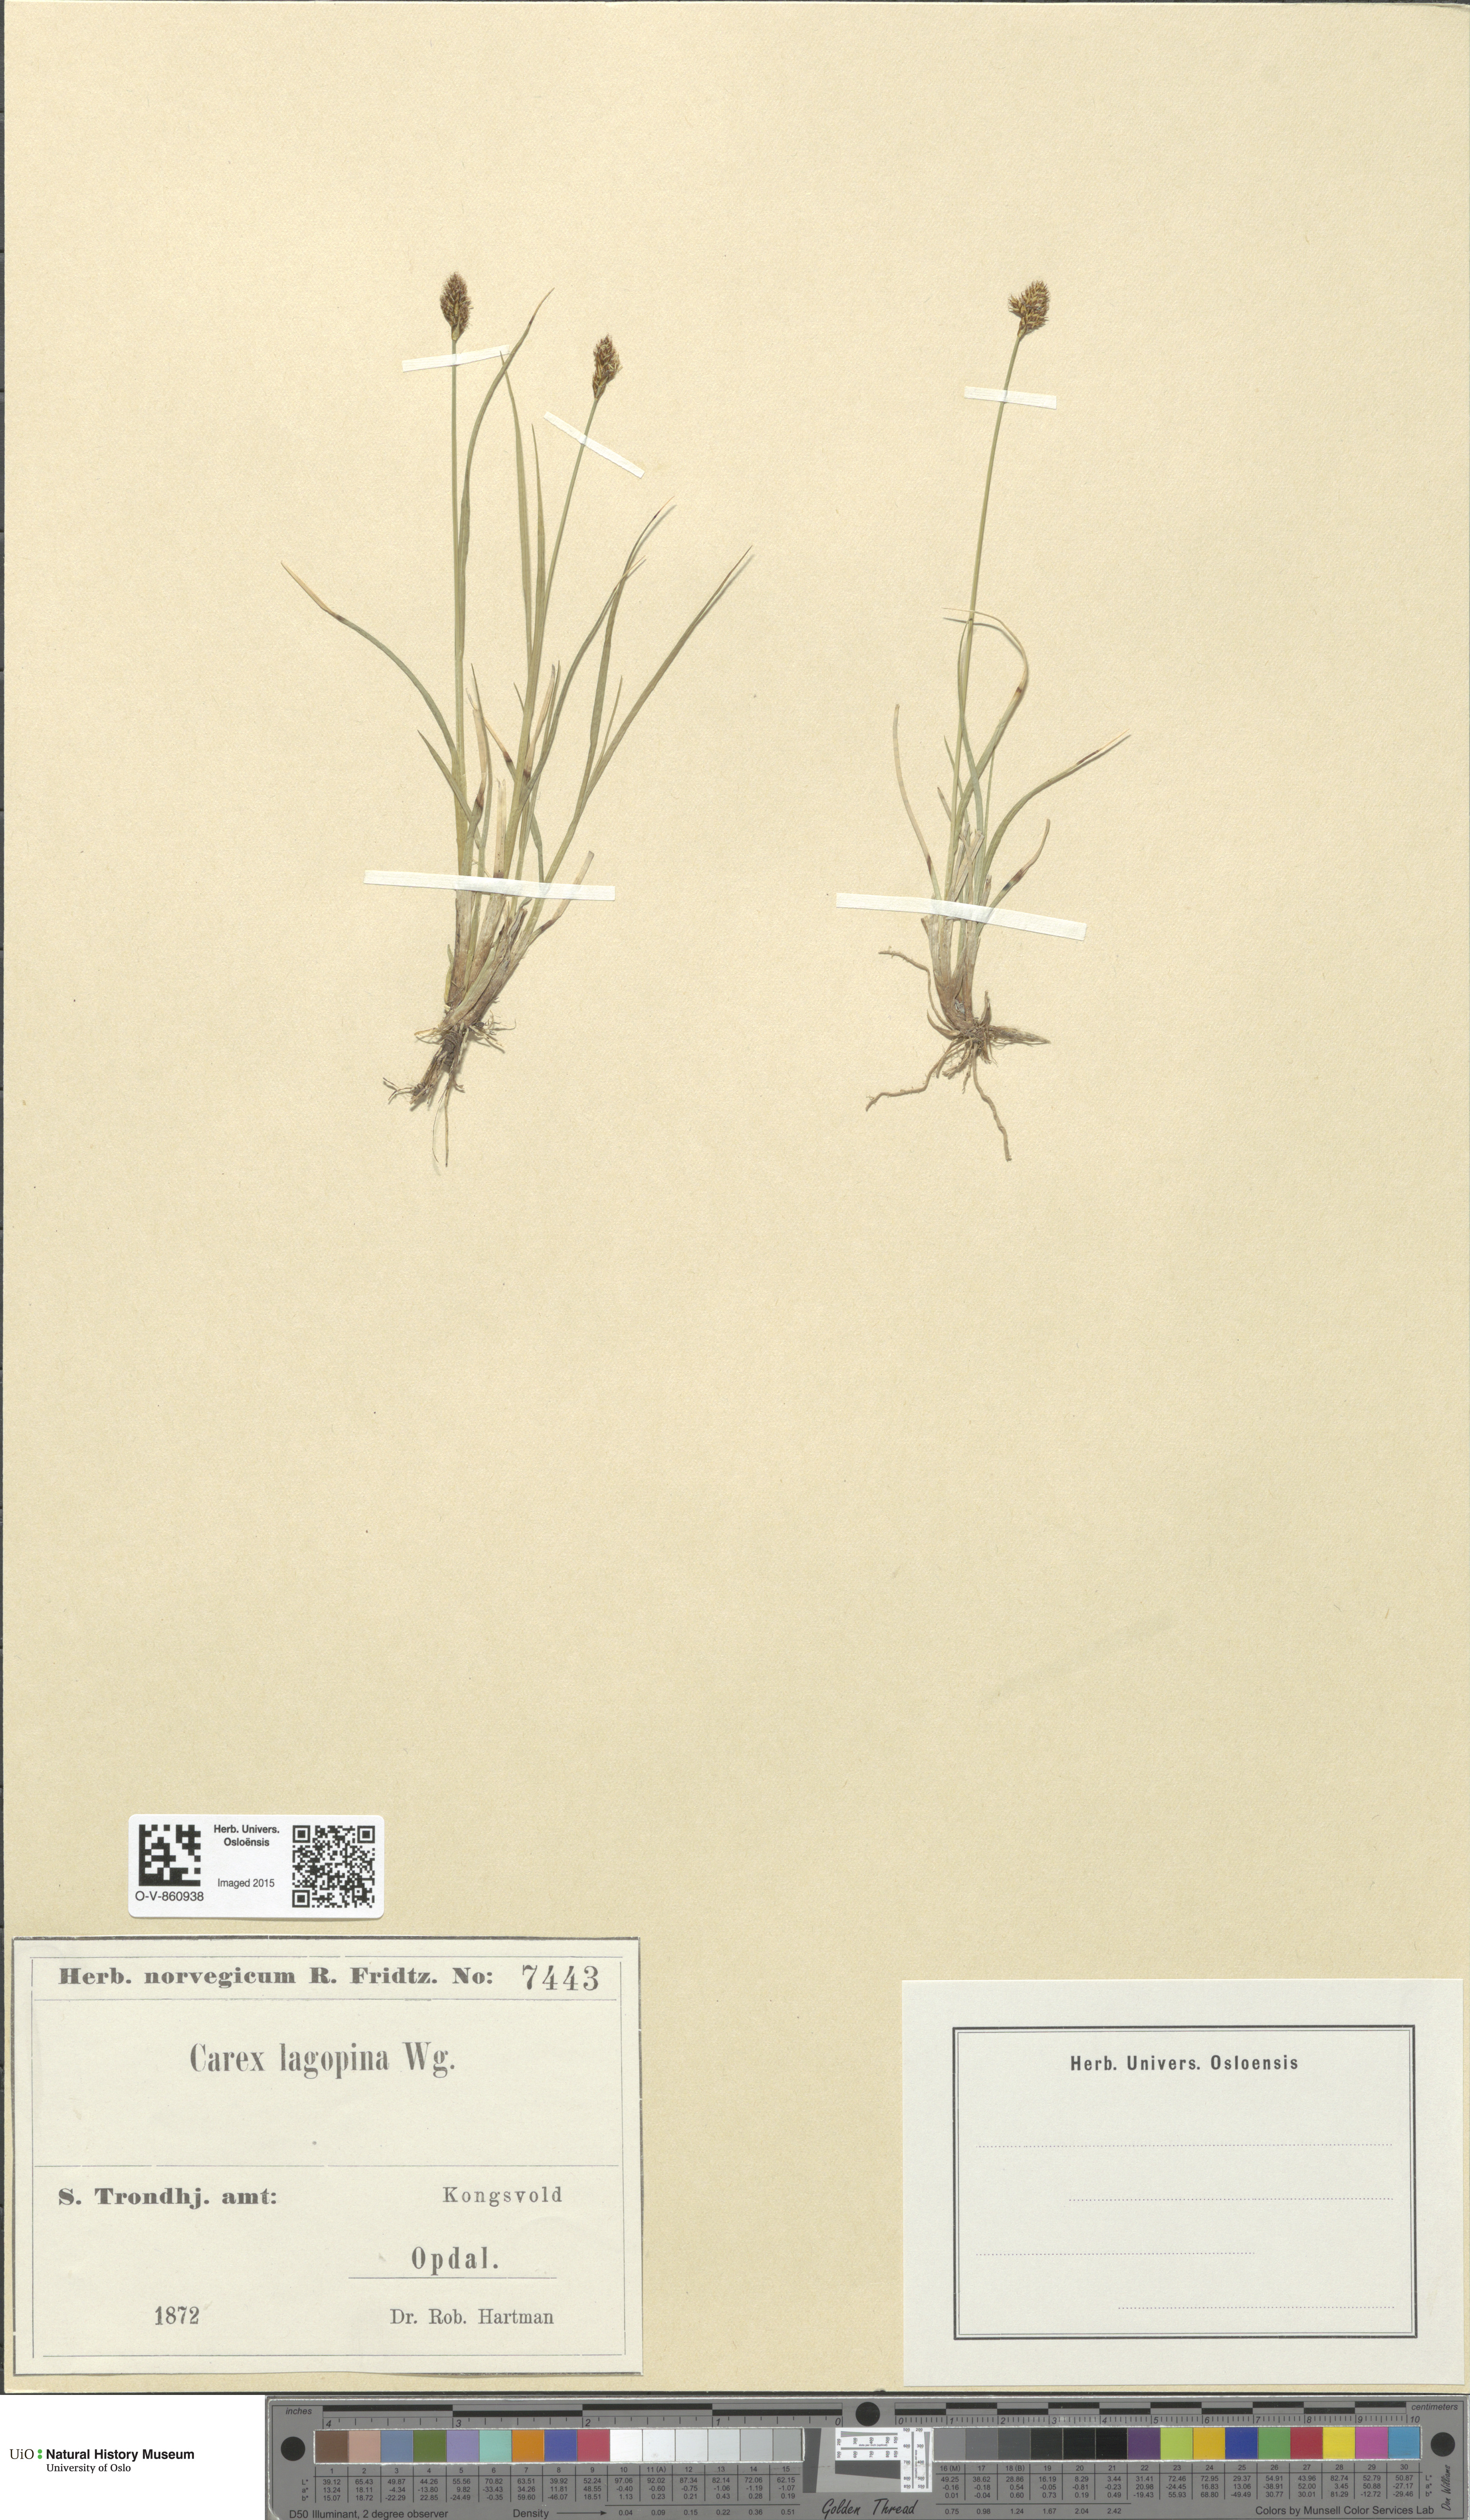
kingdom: Plantae
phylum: Tracheophyta
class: Liliopsida
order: Poales
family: Cyperaceae
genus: Carex
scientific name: Carex lachenalii
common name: Hare's-foot sedge
